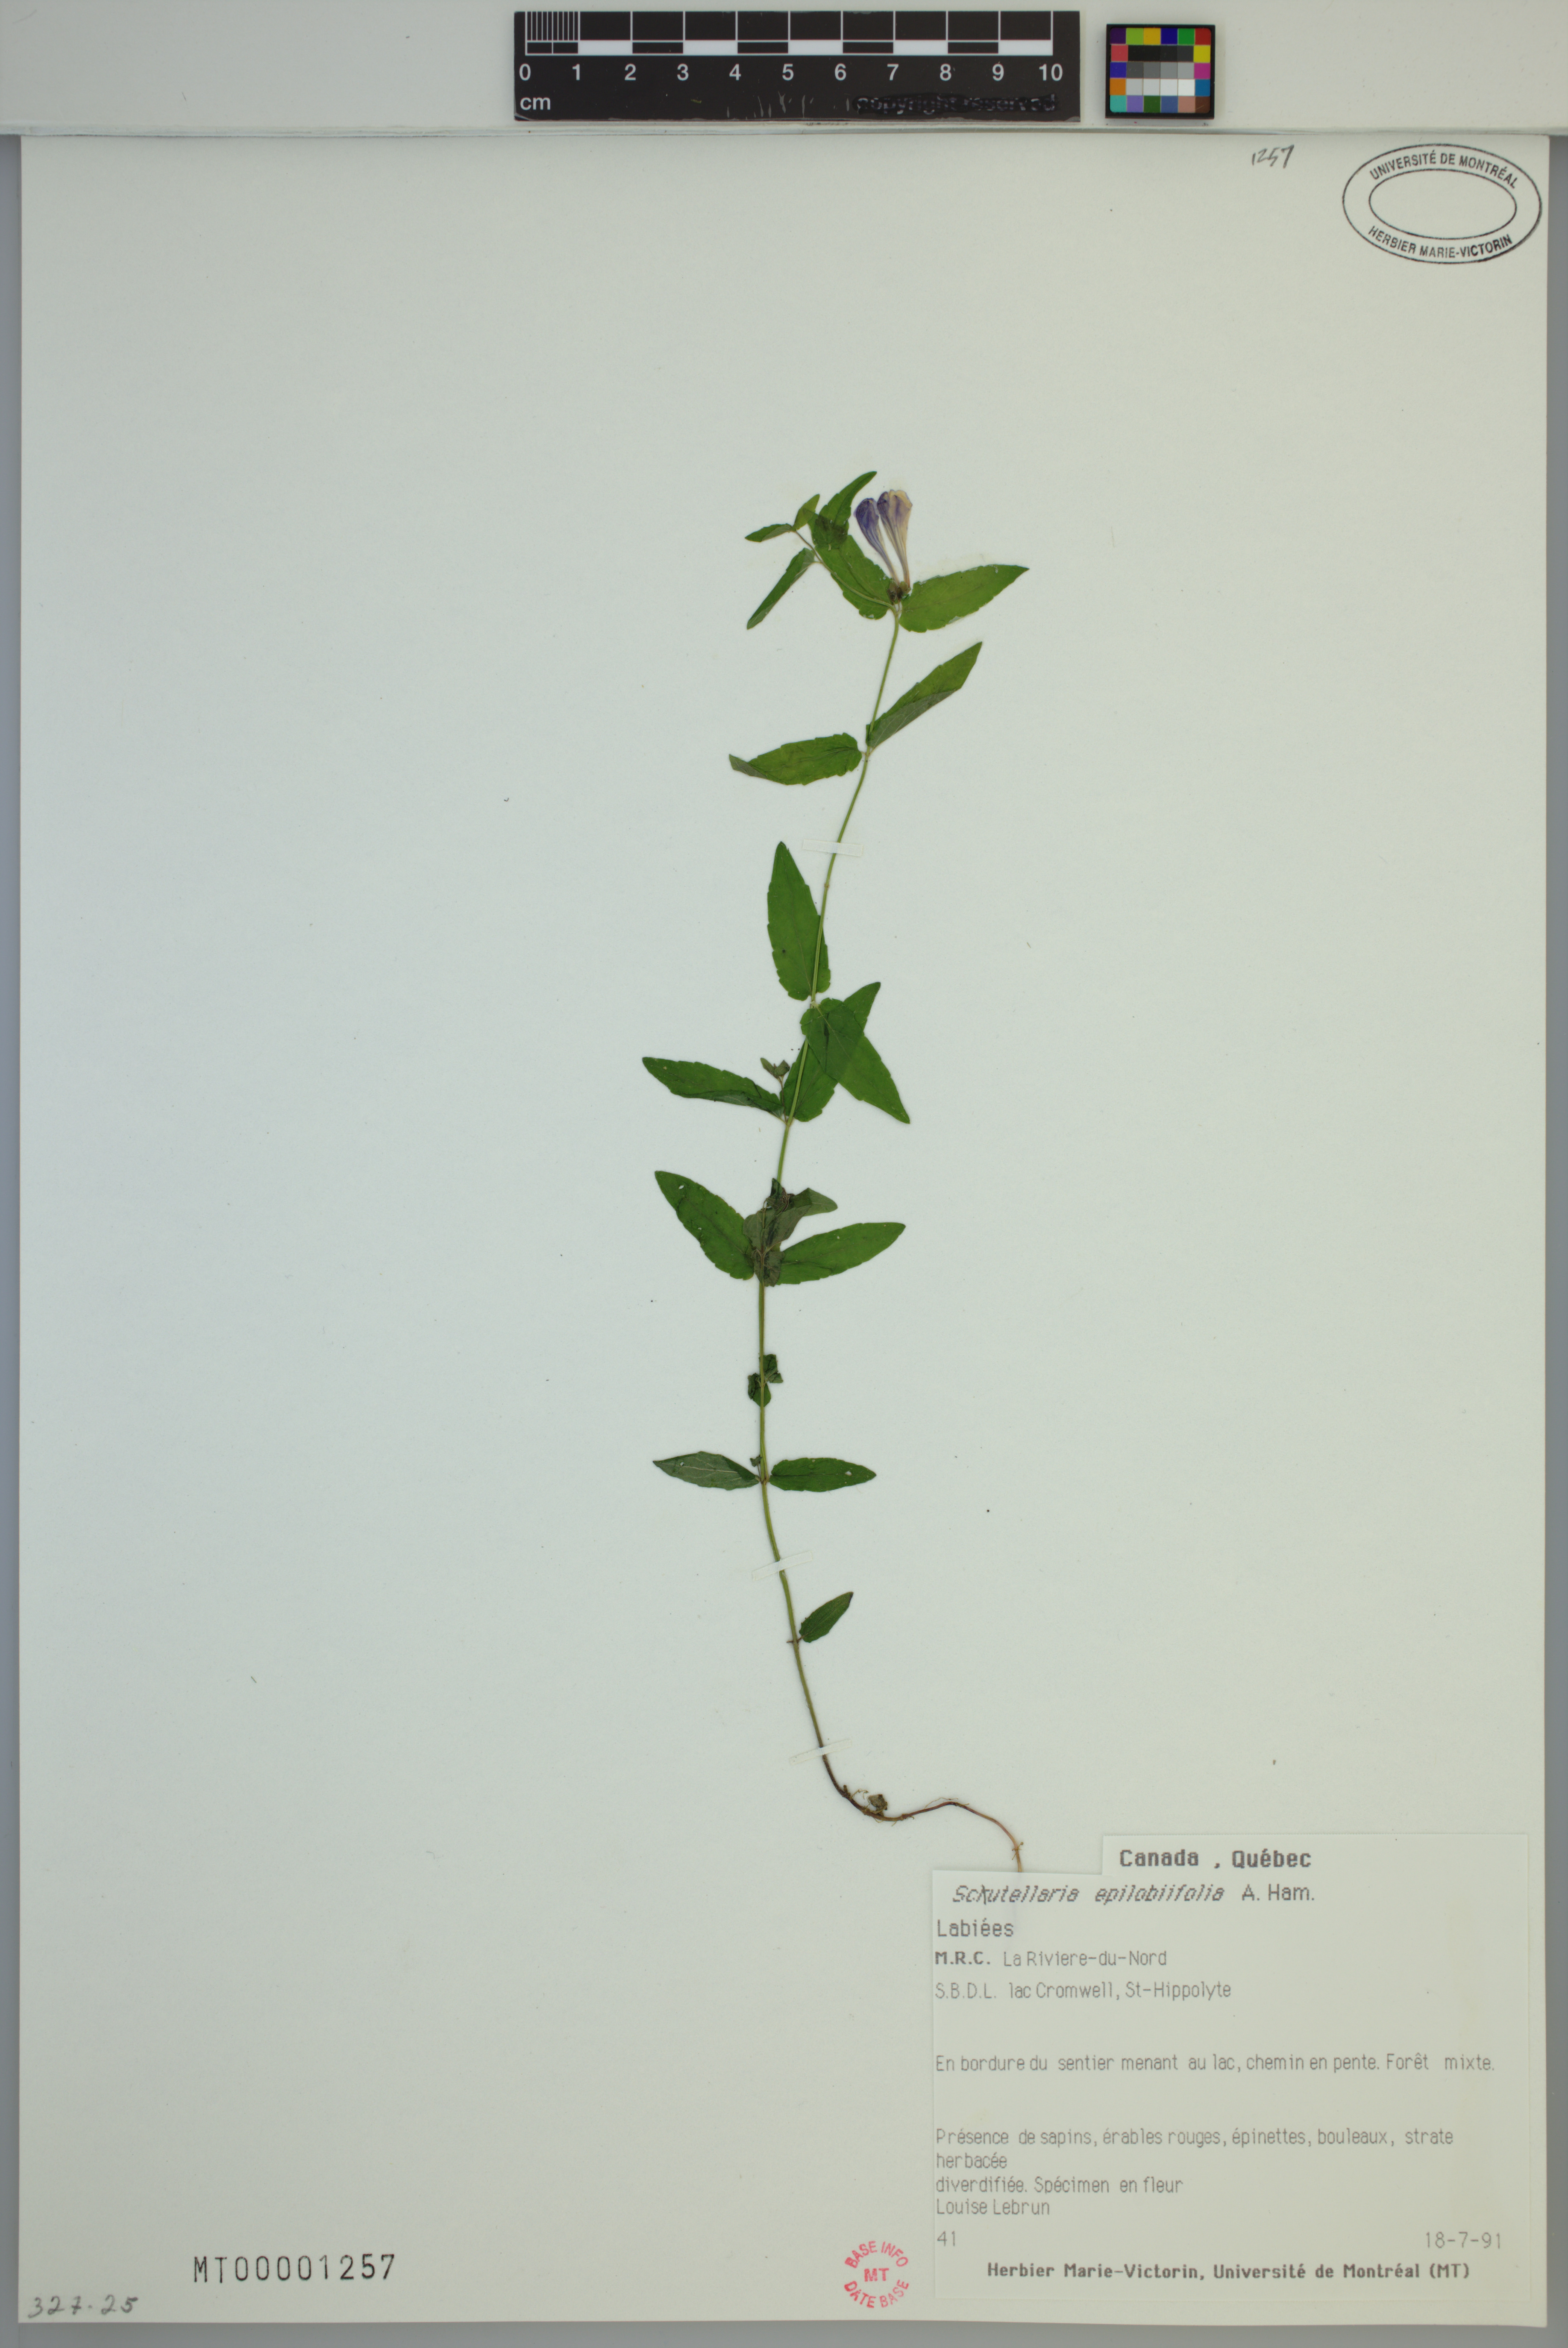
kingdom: Plantae
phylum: Tracheophyta
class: Magnoliopsida
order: Lamiales
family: Lamiaceae
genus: Scutellaria
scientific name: Scutellaria nicholsonii
